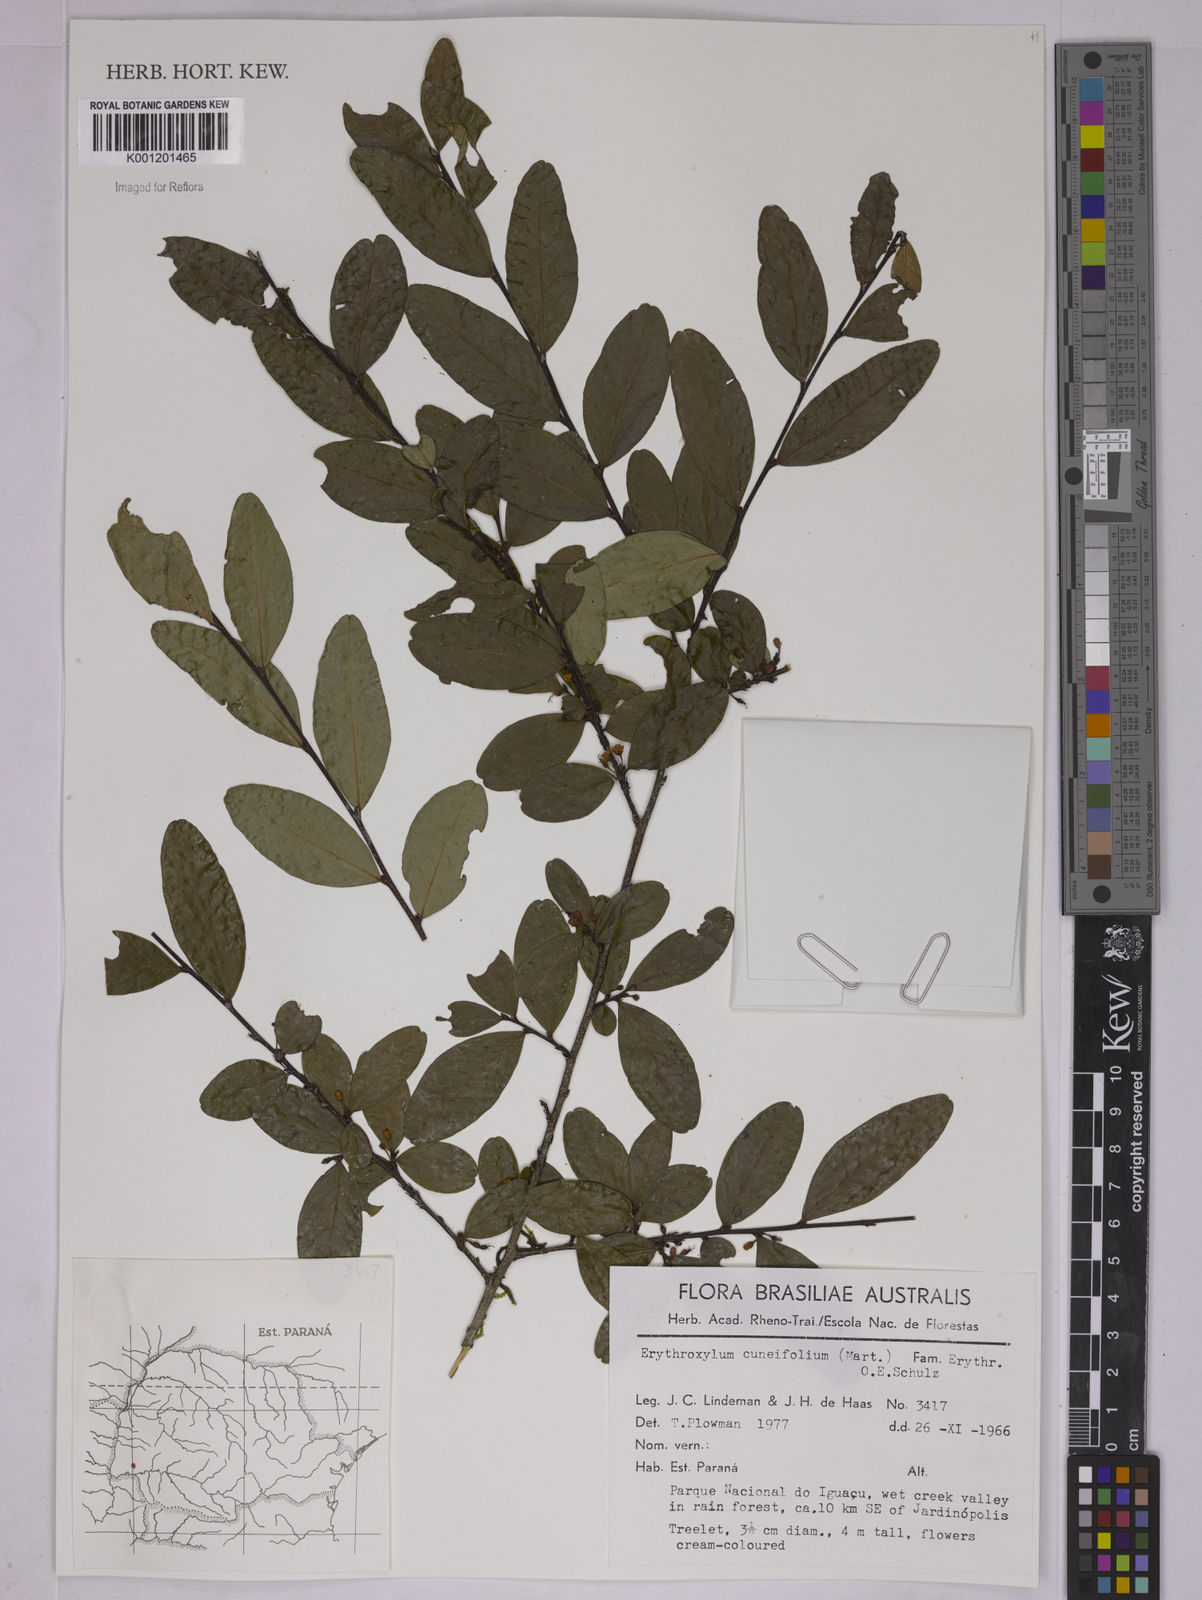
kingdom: Plantae
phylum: Tracheophyta
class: Magnoliopsida
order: Malpighiales
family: Erythroxylaceae
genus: Erythroxylum
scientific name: Erythroxylum cuneifolium
